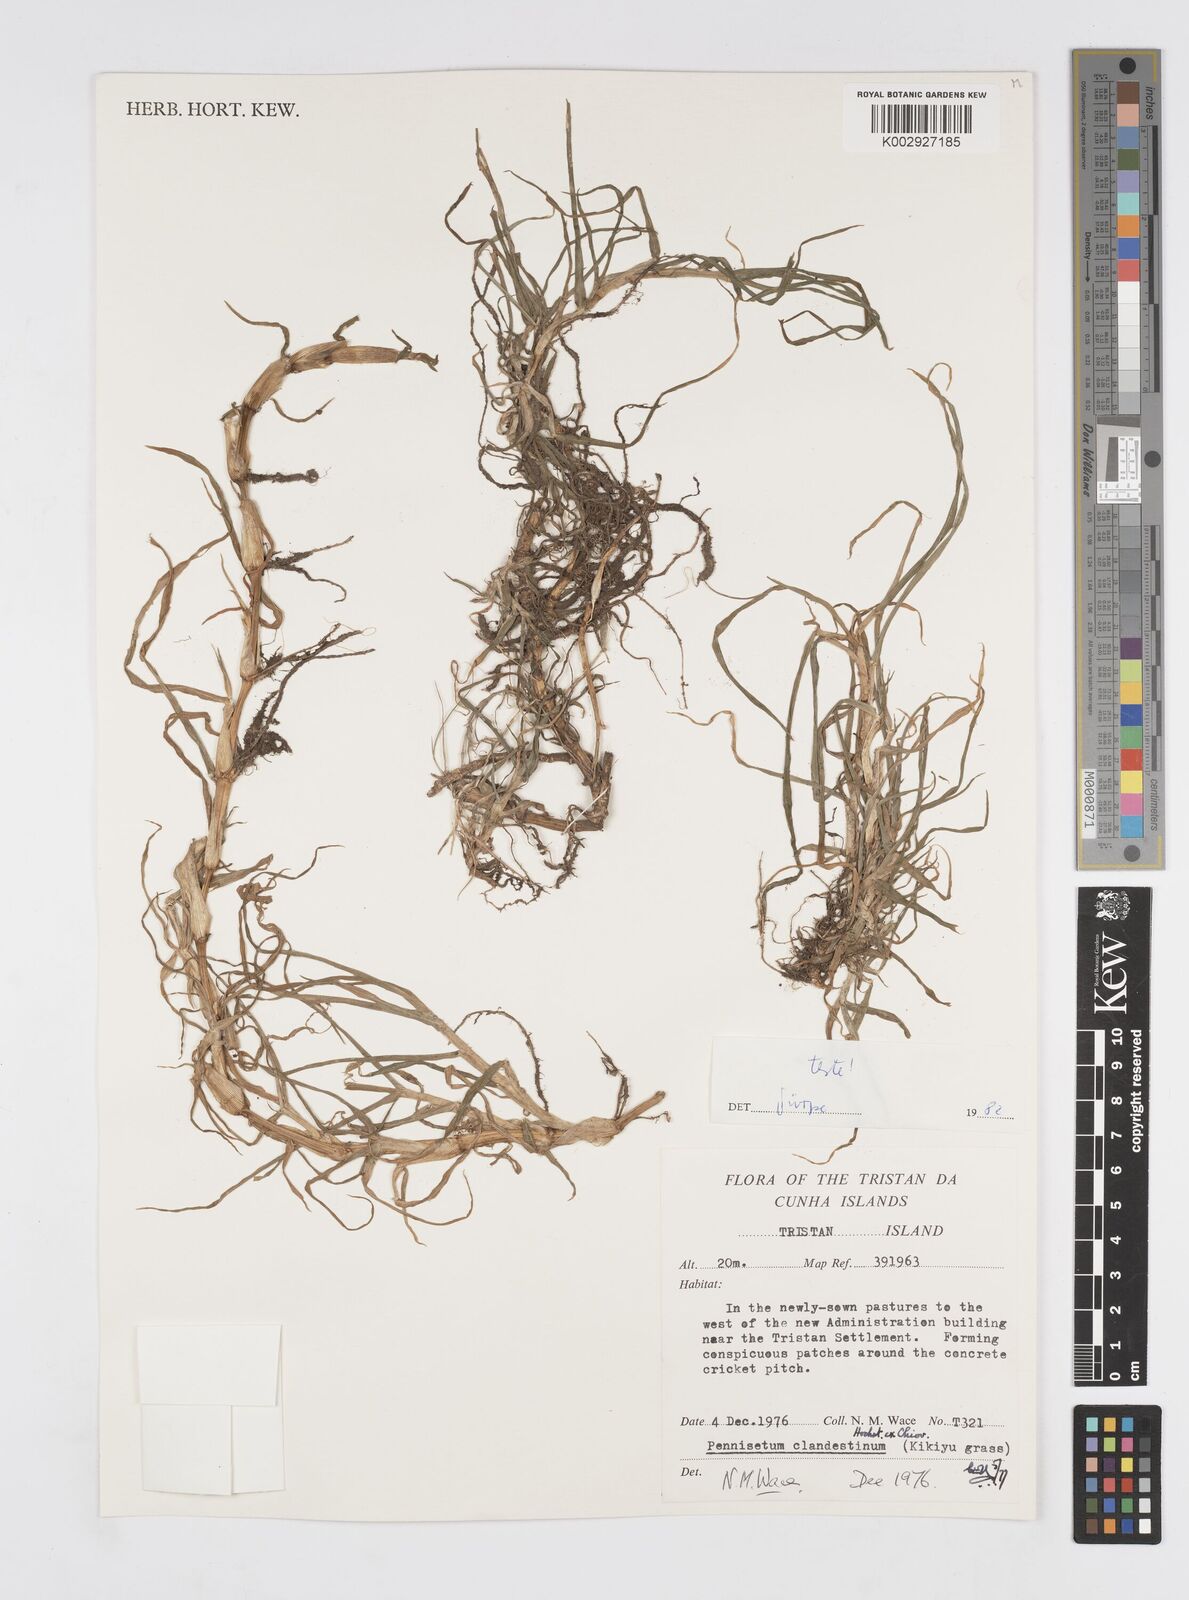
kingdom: Plantae
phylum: Tracheophyta
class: Liliopsida
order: Poales
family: Poaceae
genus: Cenchrus
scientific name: Cenchrus clandestinus
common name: Kikuyugrass
